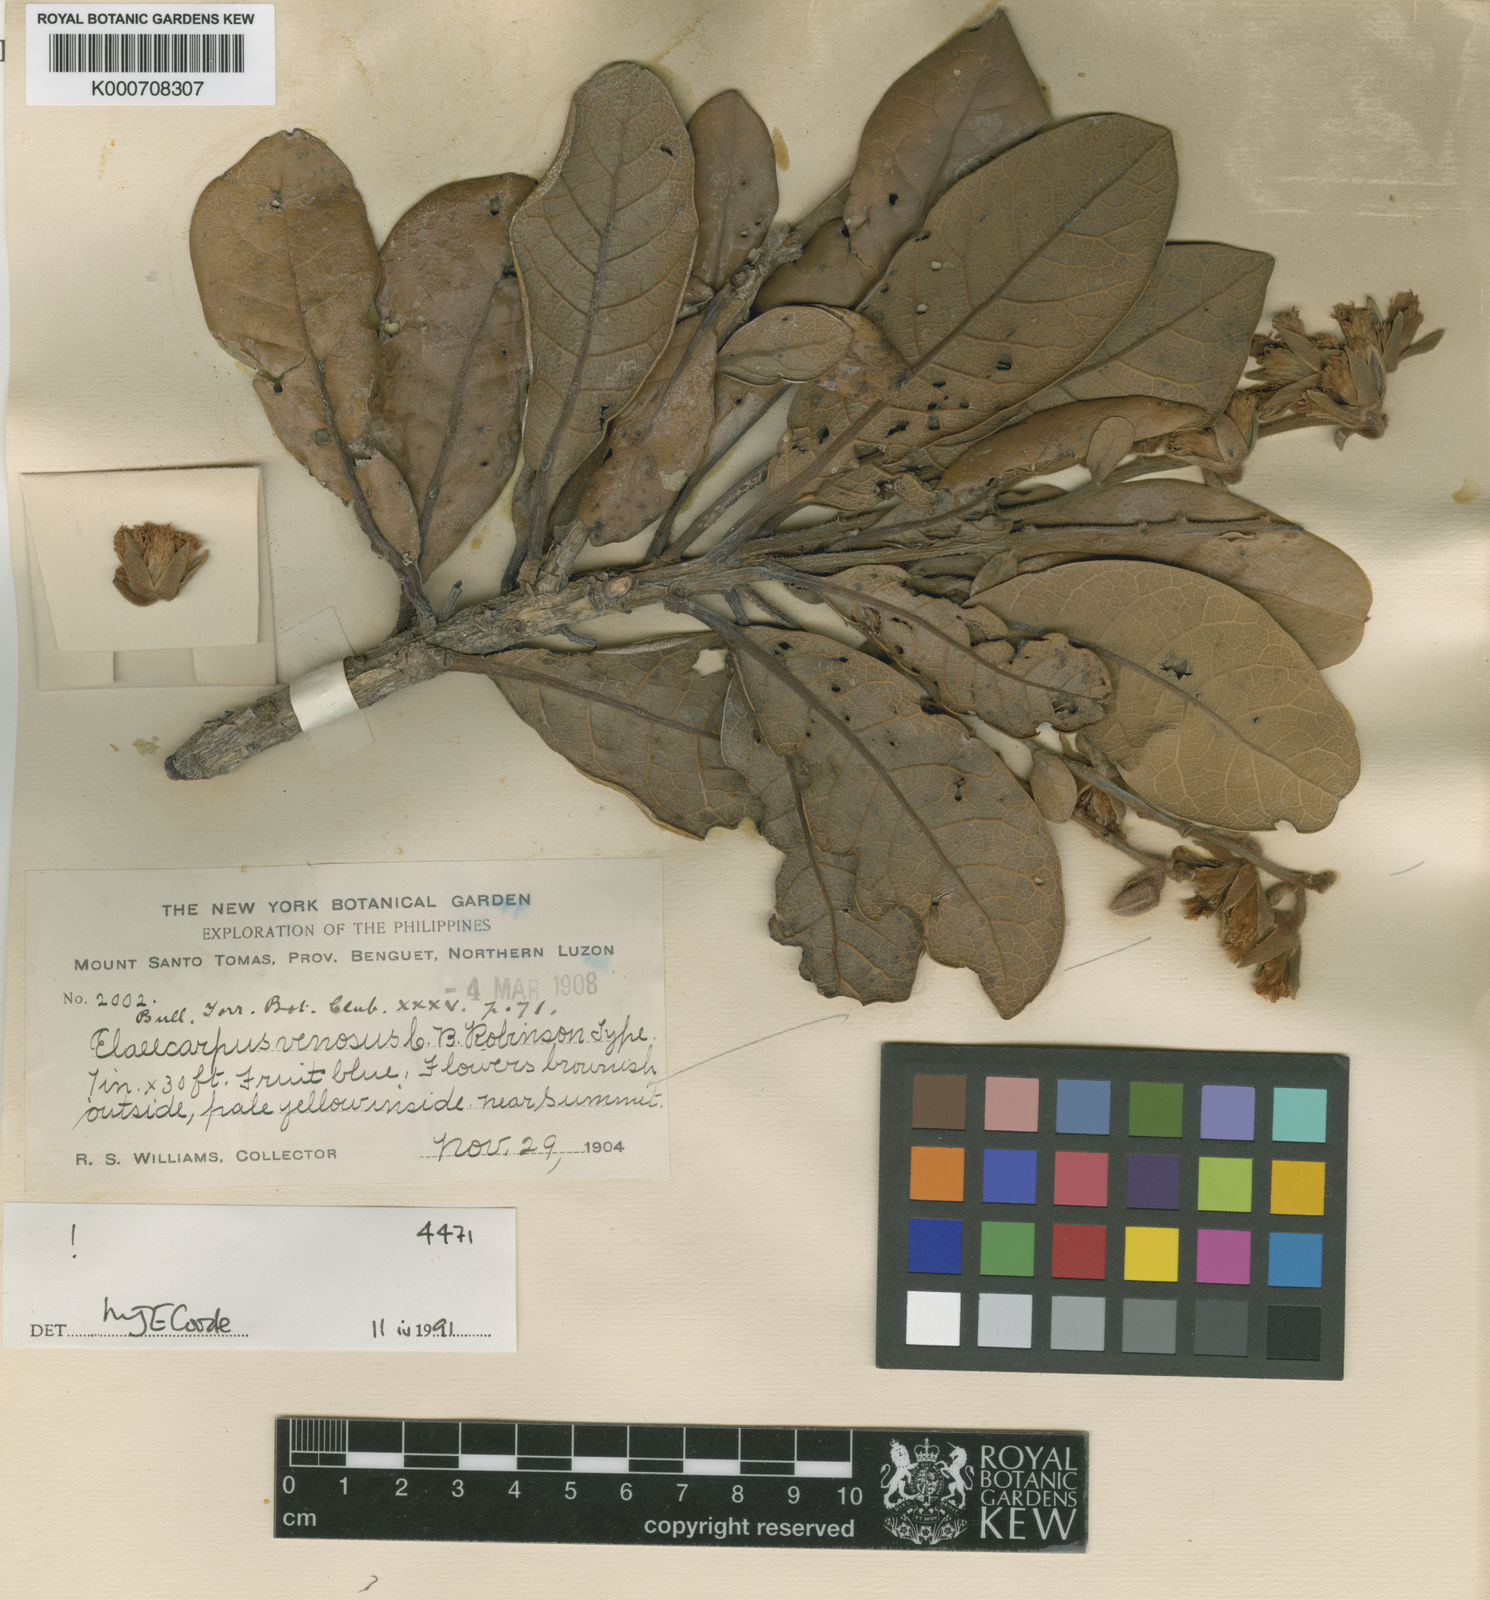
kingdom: Plantae
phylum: Tracheophyta
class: Magnoliopsida
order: Oxalidales
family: Elaeocarpaceae
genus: Elaeocarpus
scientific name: Elaeocarpus venosus
